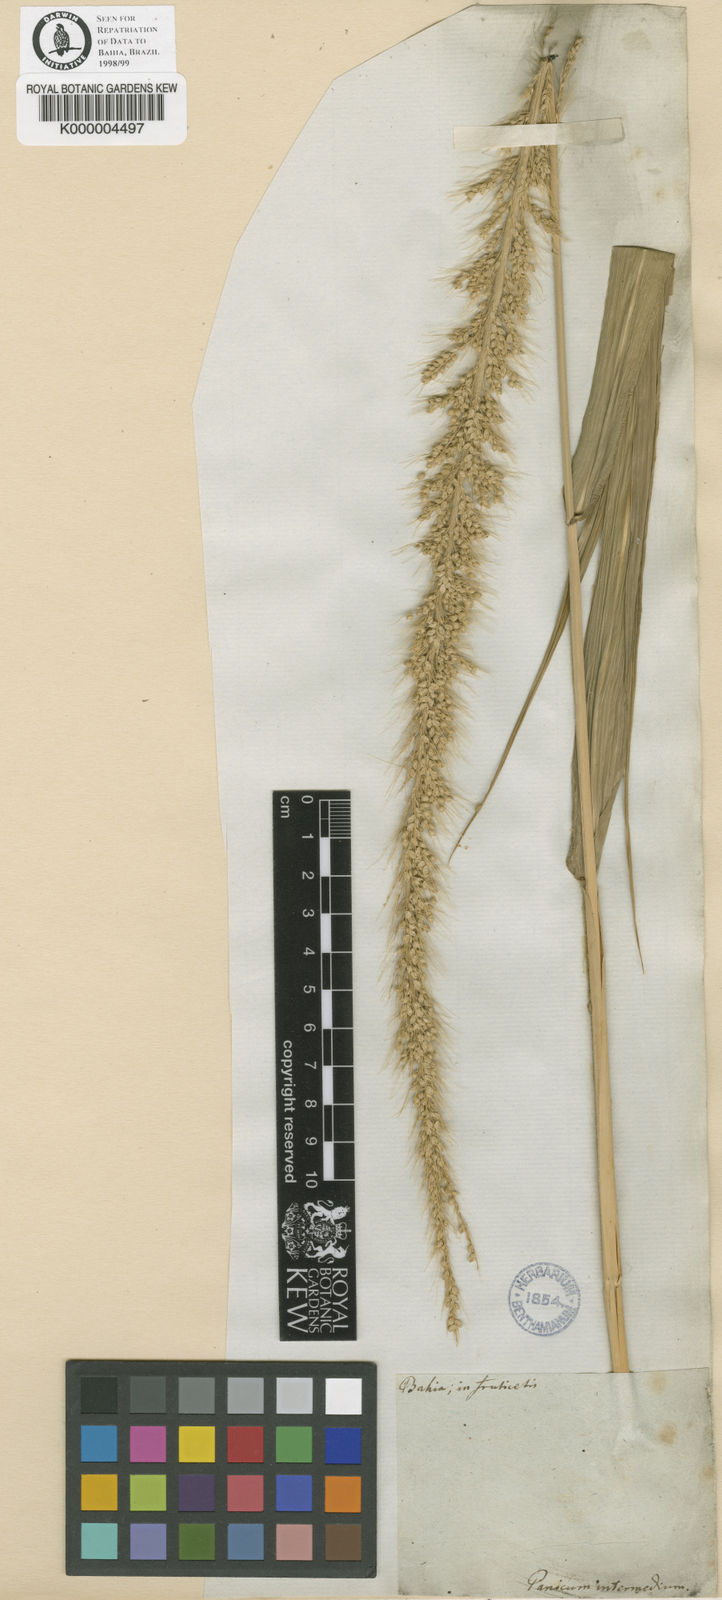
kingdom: Plantae
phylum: Tracheophyta
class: Liliopsida
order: Poales
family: Poaceae
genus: Setaria
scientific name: Setaria tenax
